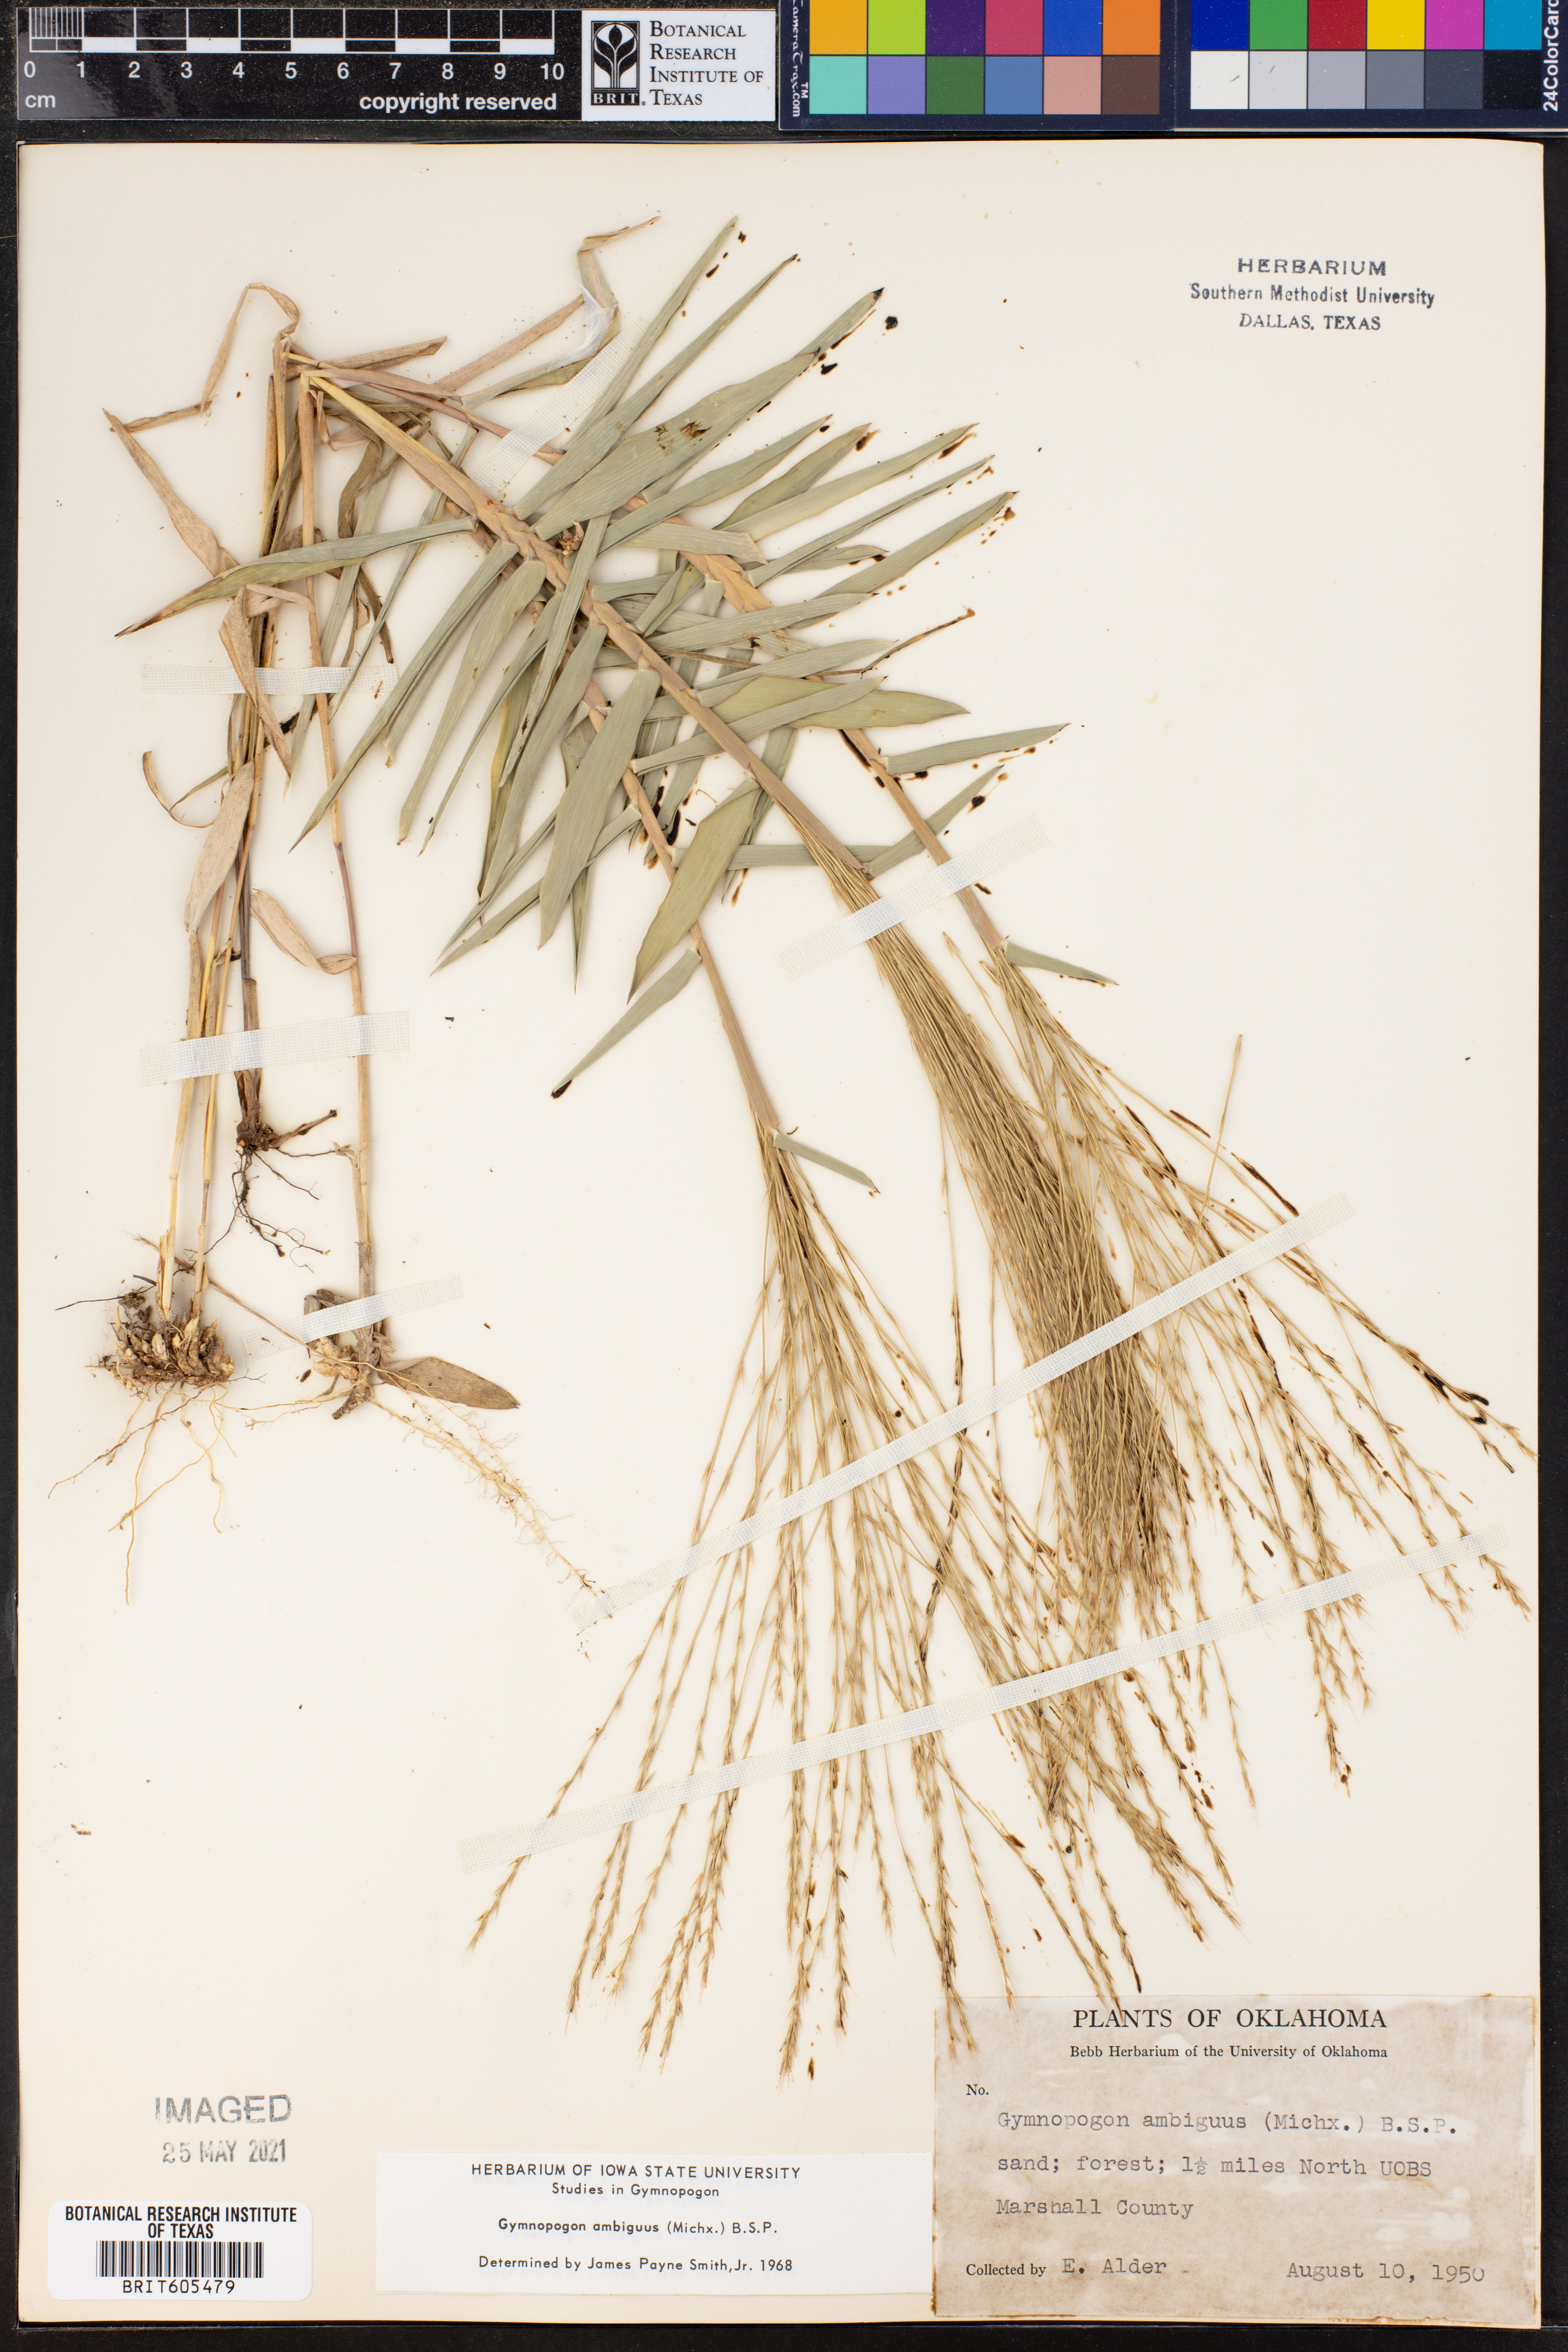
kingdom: Plantae
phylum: Tracheophyta
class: Liliopsida
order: Poales
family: Poaceae
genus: Gymnopogon
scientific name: Gymnopogon ambiguus
